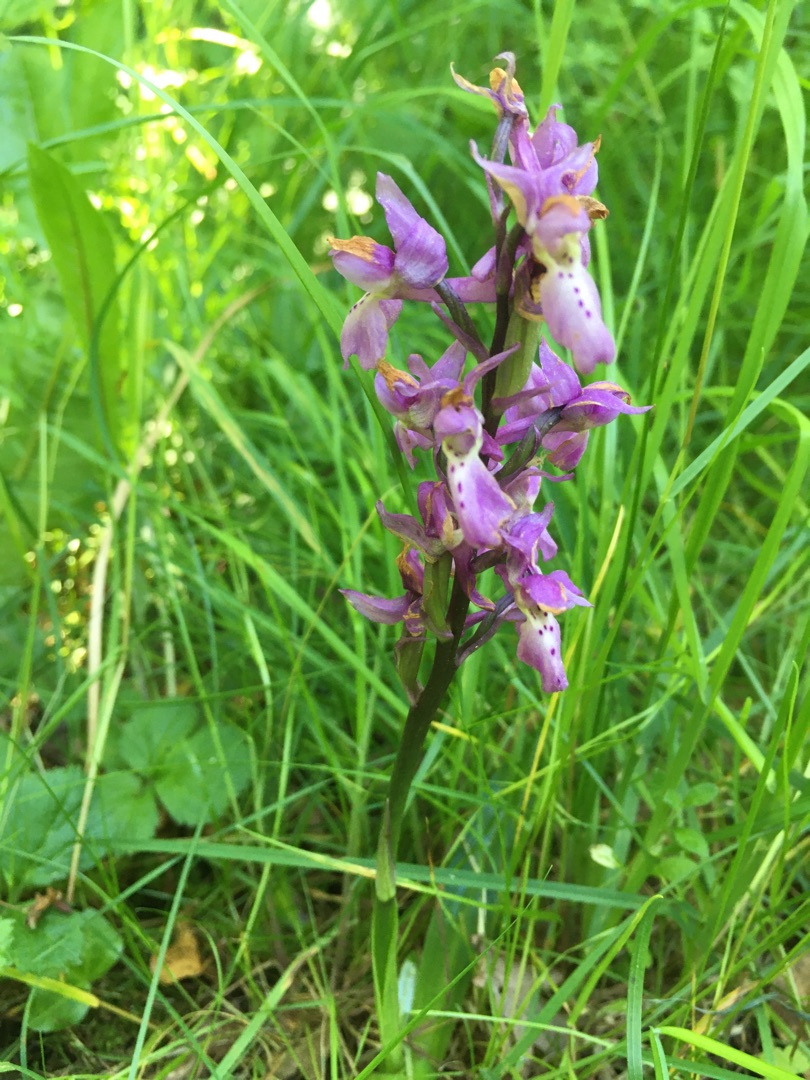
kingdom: Plantae
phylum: Tracheophyta
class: Liliopsida
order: Asparagales
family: Orchidaceae
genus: Orchis
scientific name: Orchis mascula
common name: Tyndakset gøgeurt
